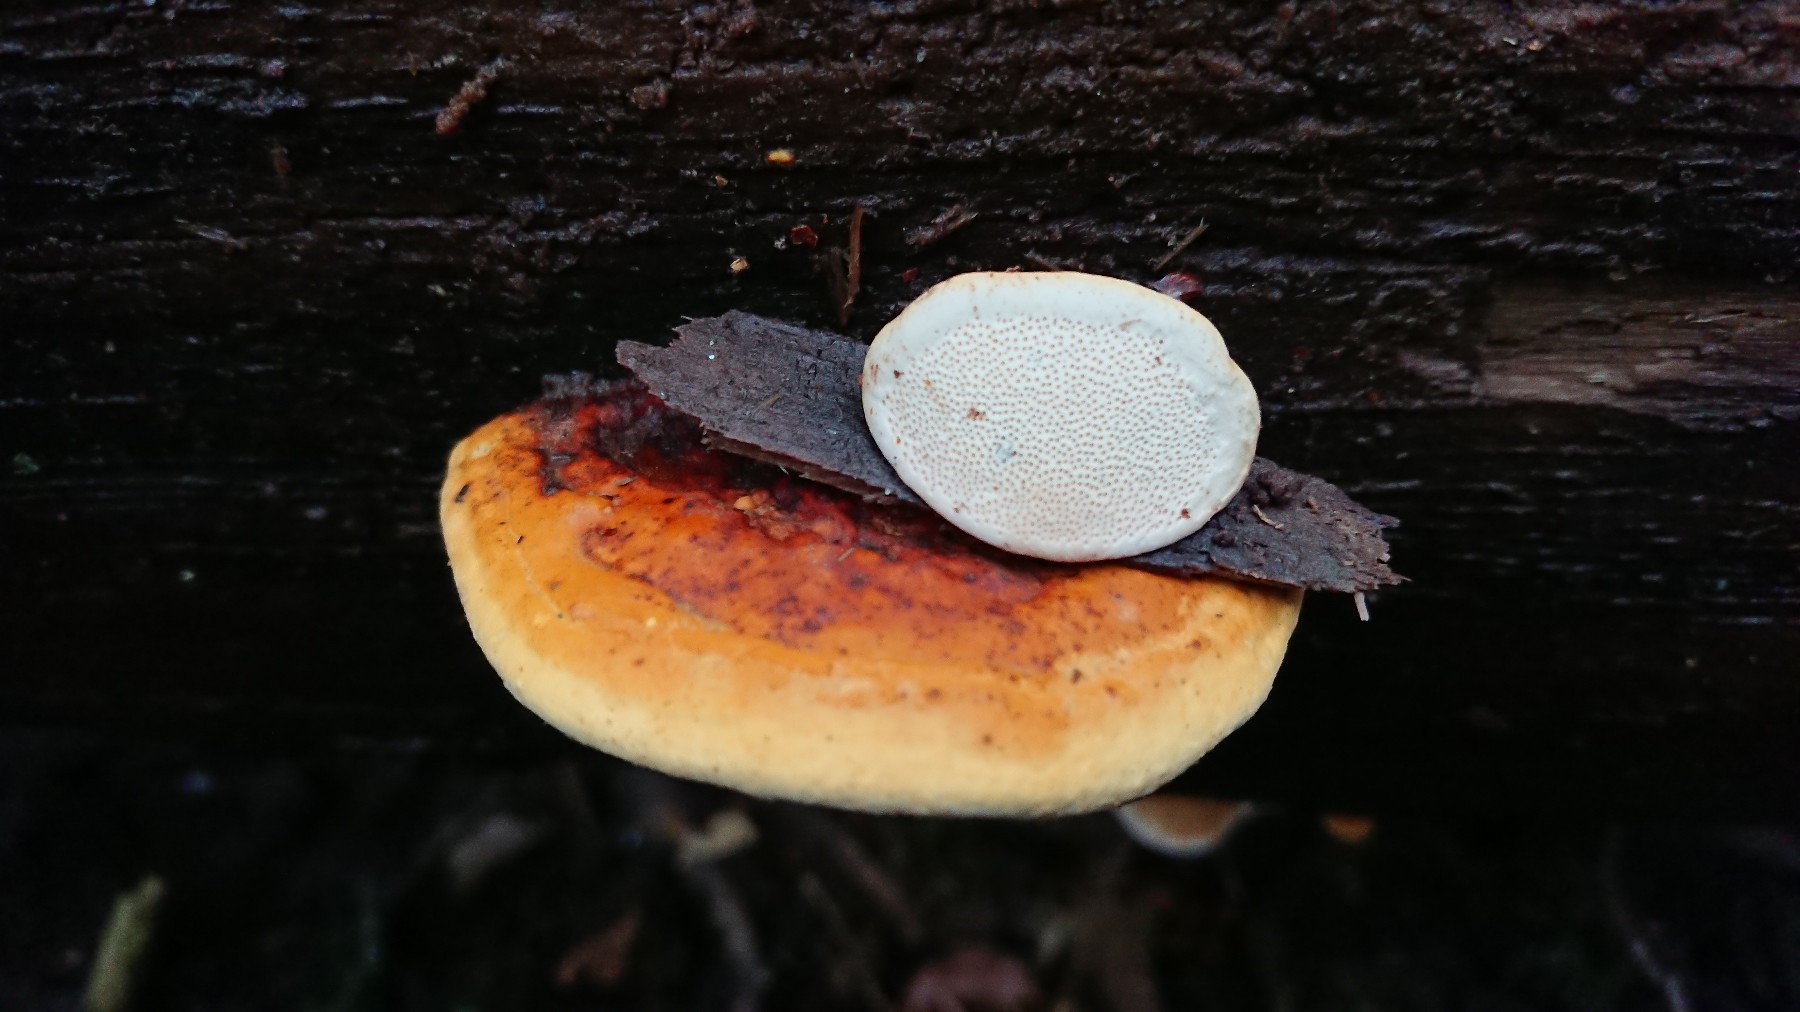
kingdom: Fungi
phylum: Basidiomycota
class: Agaricomycetes
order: Polyporales
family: Fomitopsidaceae
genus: Fomitopsis
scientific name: Fomitopsis pinicola
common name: randbæltet hovporesvamp
